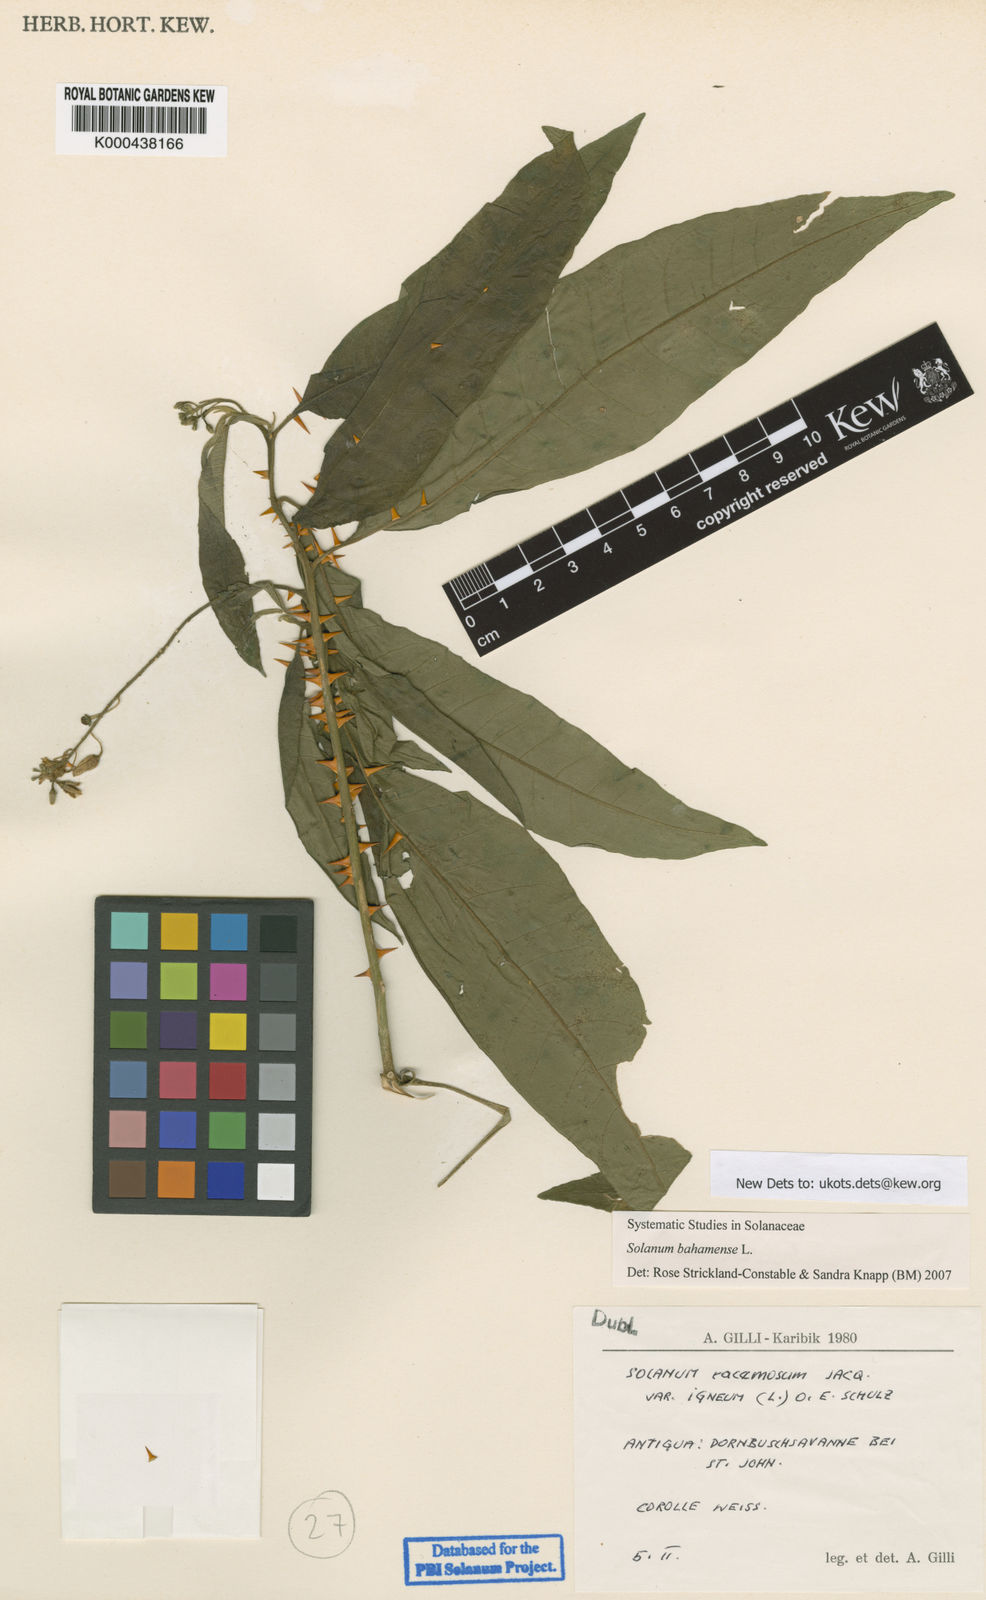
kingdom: Plantae
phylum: Tracheophyta
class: Magnoliopsida
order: Solanales
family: Solanaceae
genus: Solanum
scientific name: Solanum bahamense
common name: Canker-berry
